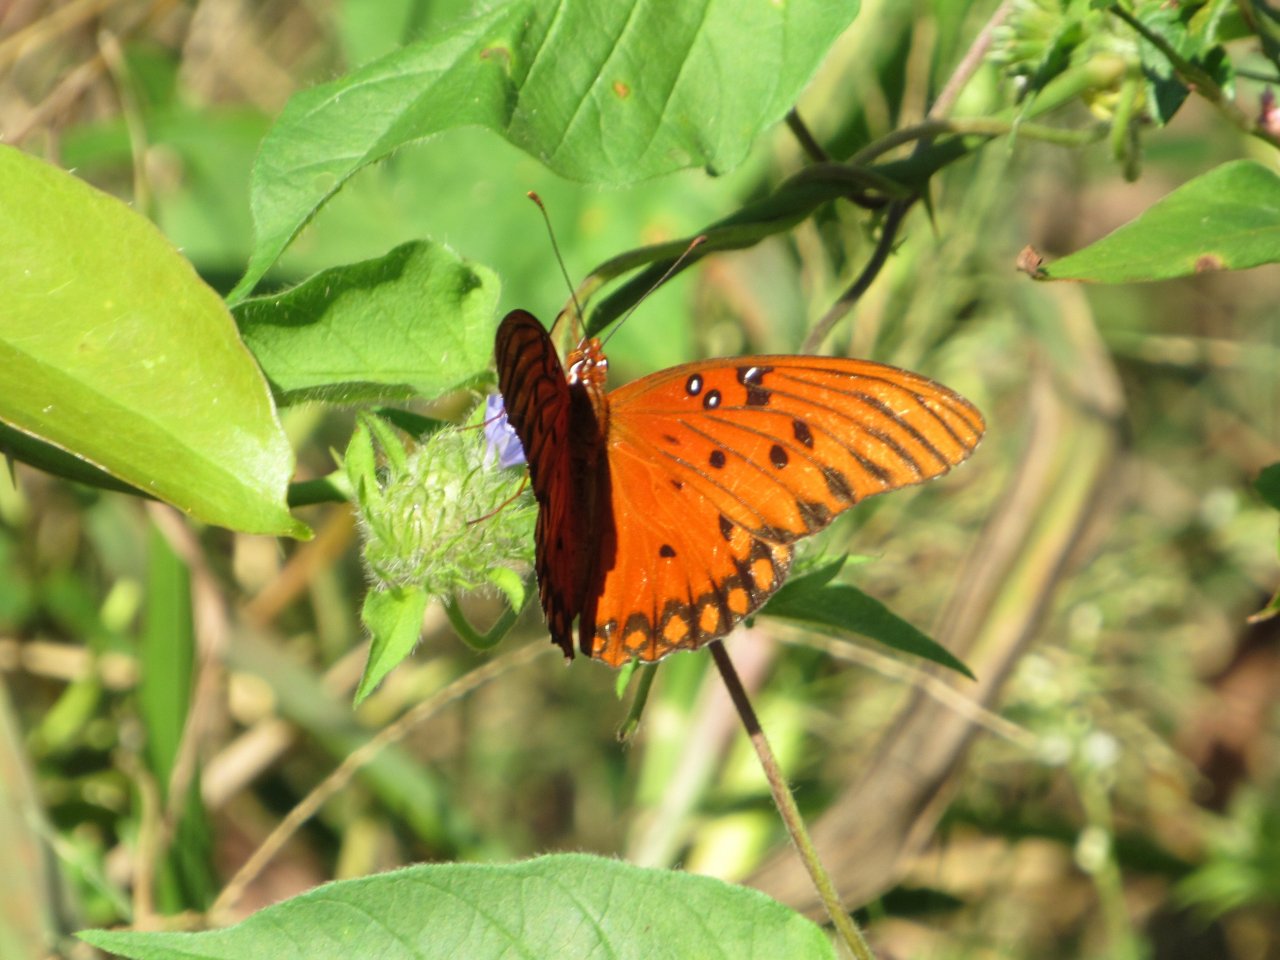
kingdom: Animalia
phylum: Arthropoda
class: Insecta
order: Lepidoptera
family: Nymphalidae
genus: Dione
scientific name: Dione vanillae
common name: Gulf Fritillary
